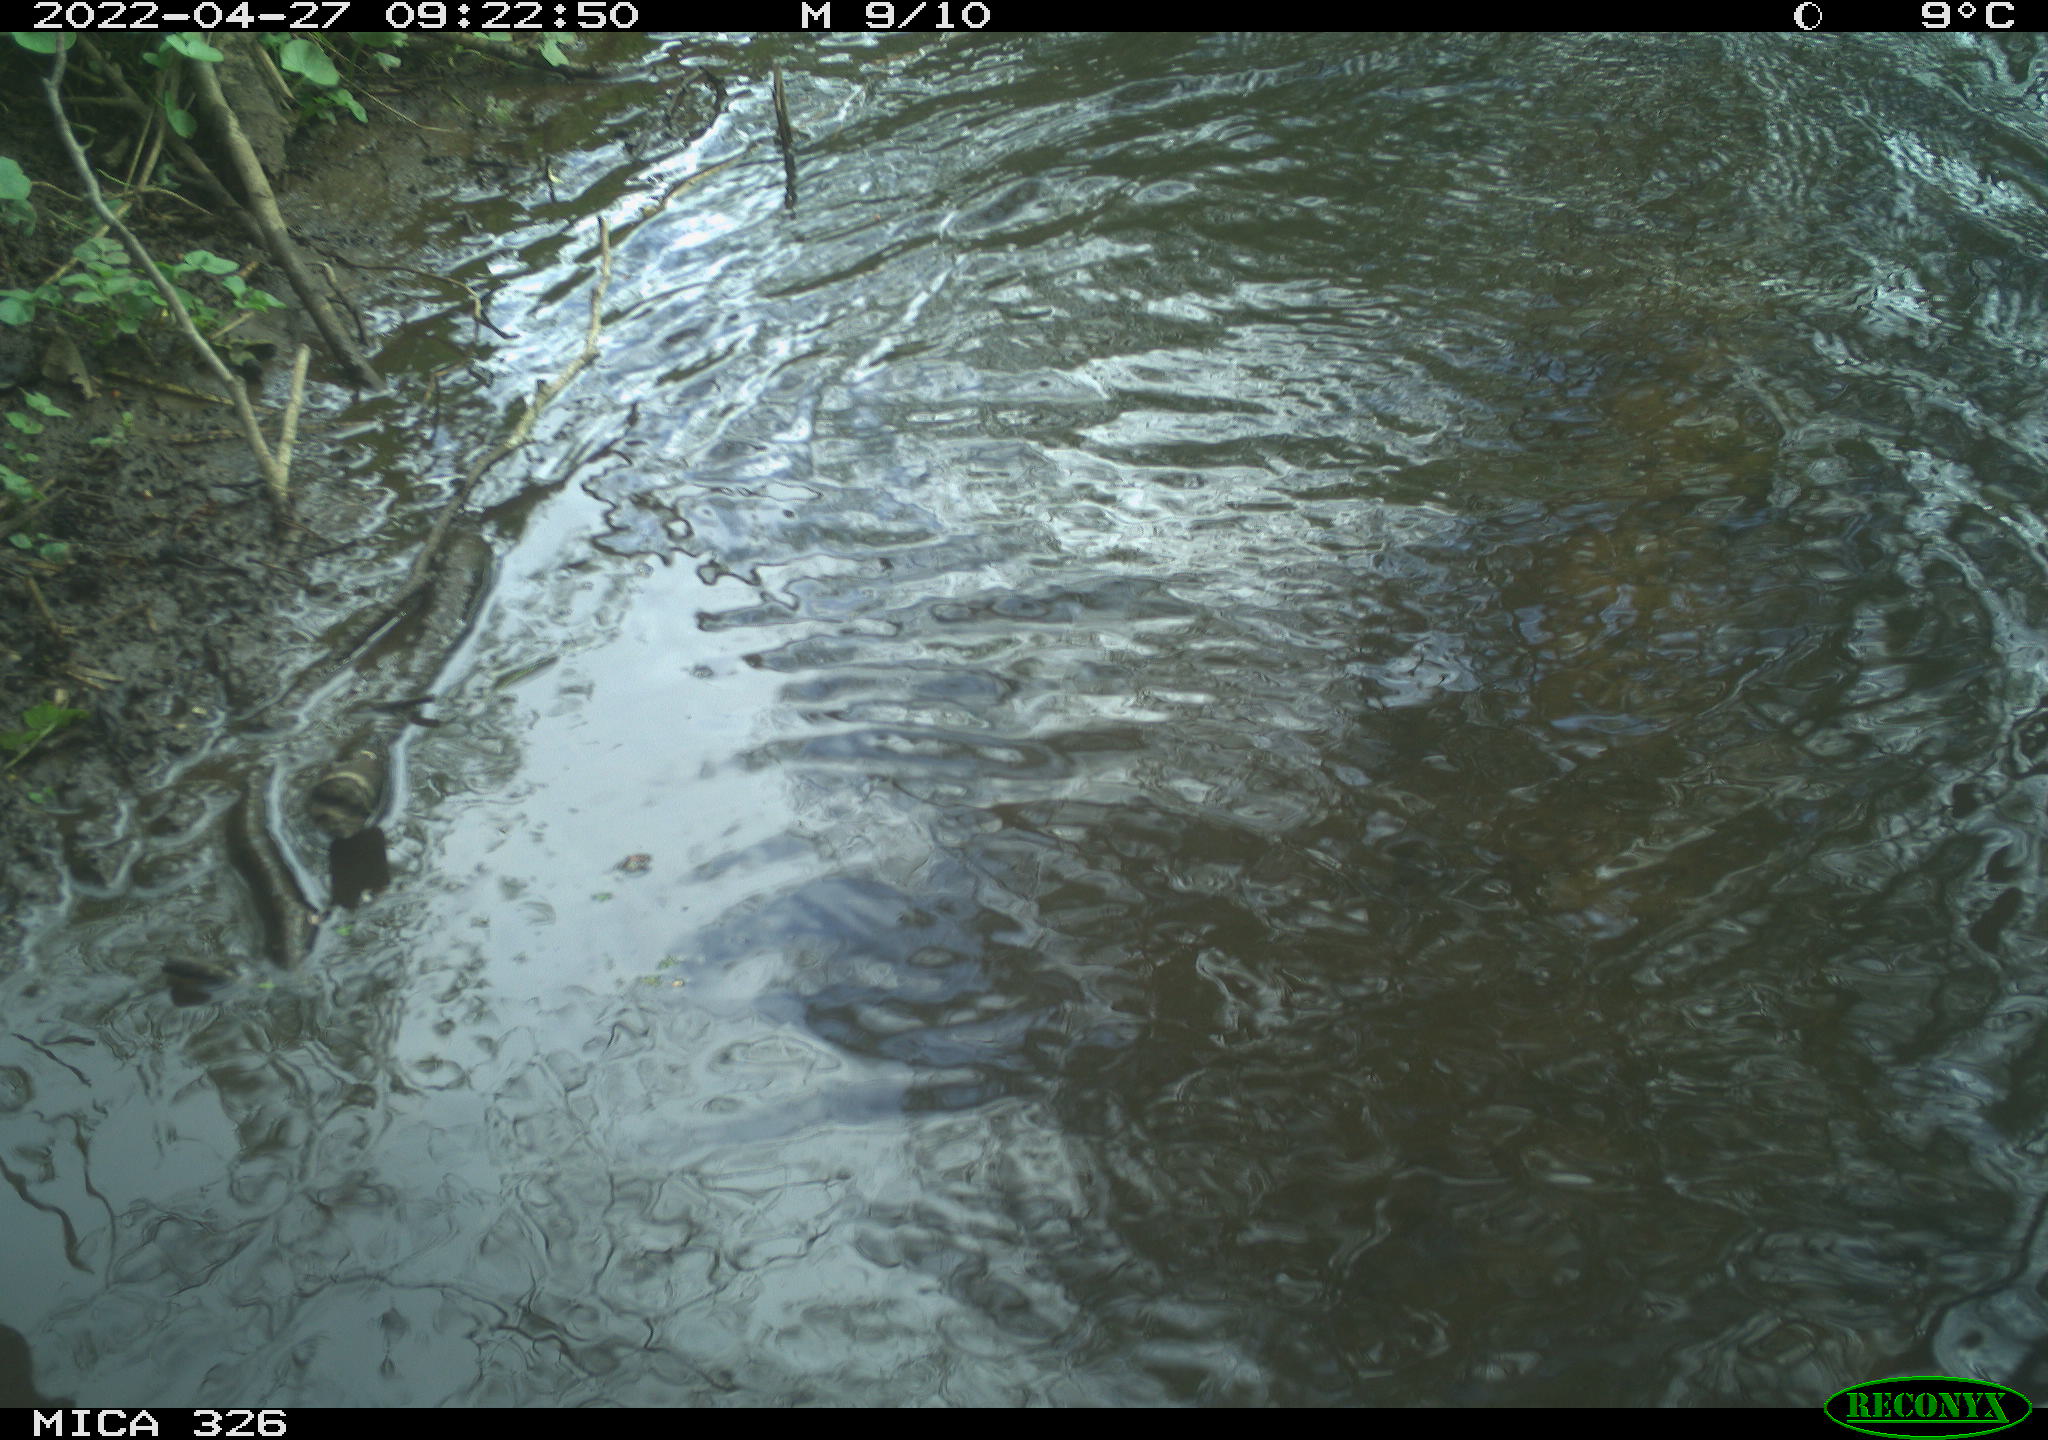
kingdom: Animalia
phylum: Chordata
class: Mammalia
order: Rodentia
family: Cricetidae
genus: Ondatra
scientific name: Ondatra zibethicus
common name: Muskrat
